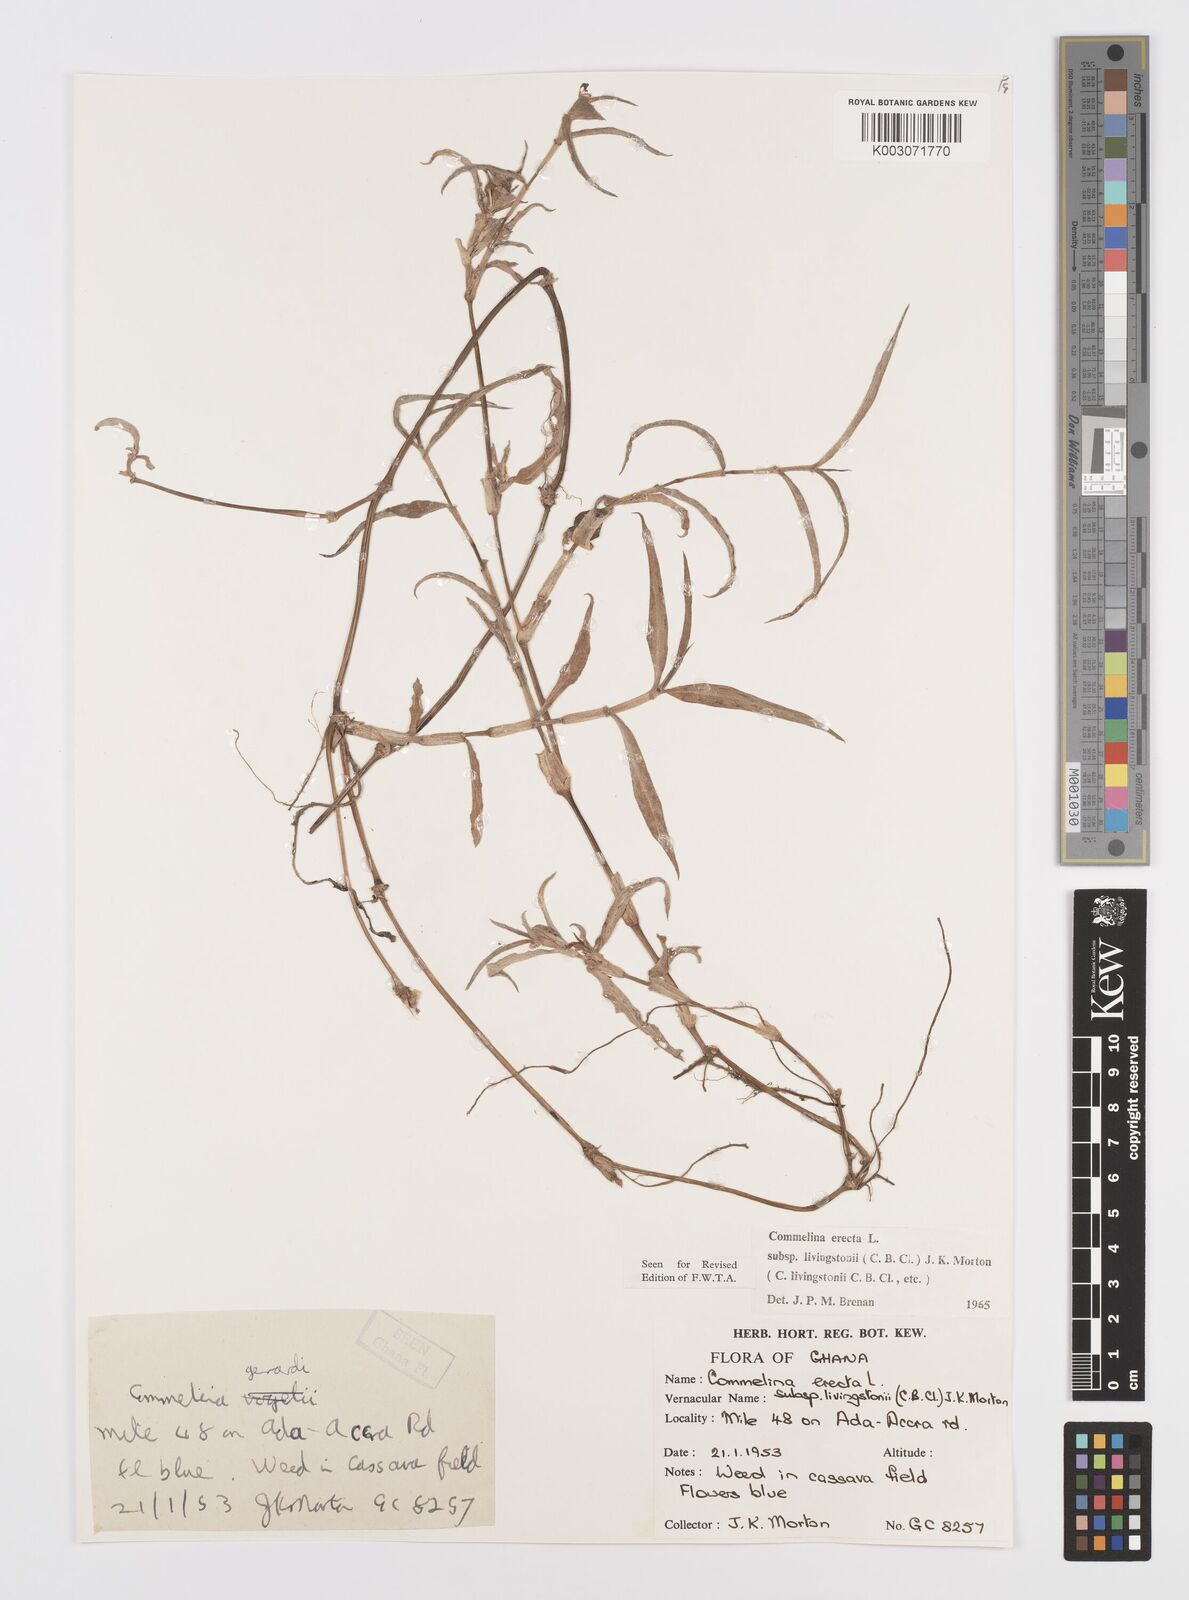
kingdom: Plantae
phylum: Tracheophyta
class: Liliopsida
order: Commelinales
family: Commelinaceae
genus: Commelina
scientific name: Commelina erecta
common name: Blousel blommetjie
